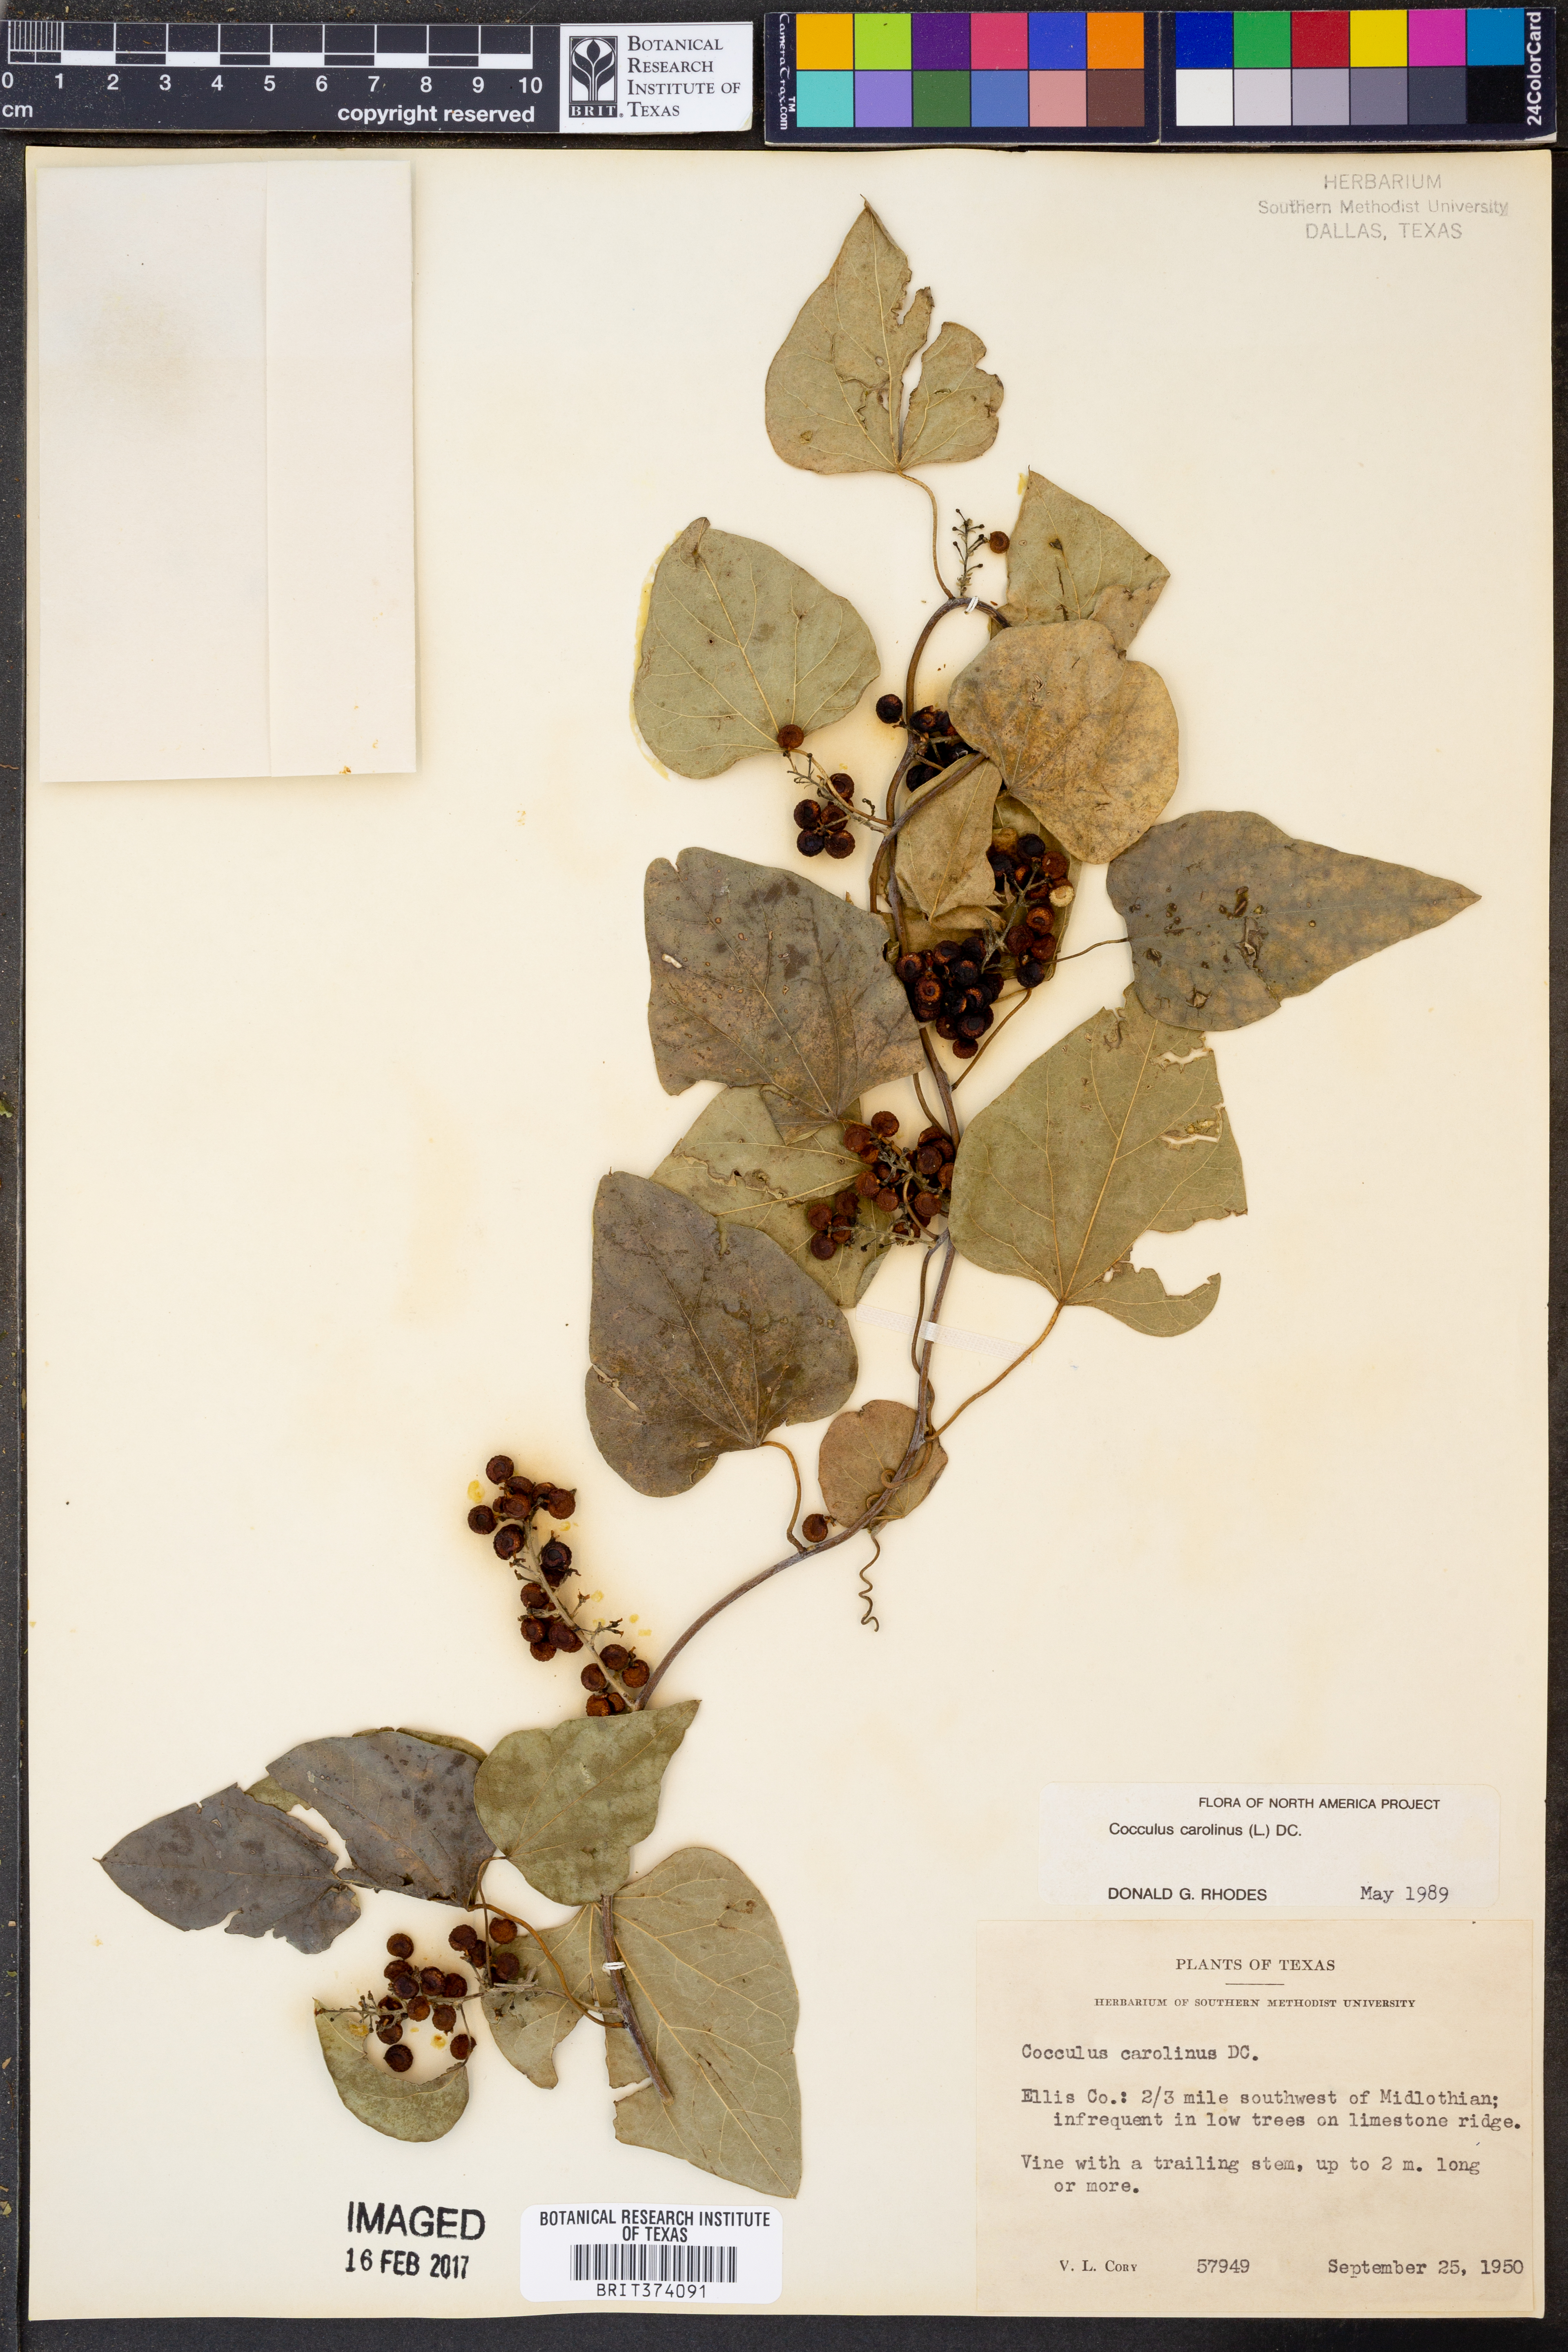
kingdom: Plantae
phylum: Tracheophyta
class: Magnoliopsida
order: Ranunculales
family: Menispermaceae
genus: Cocculus
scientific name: Cocculus carolinus
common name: Carolina moonseed
